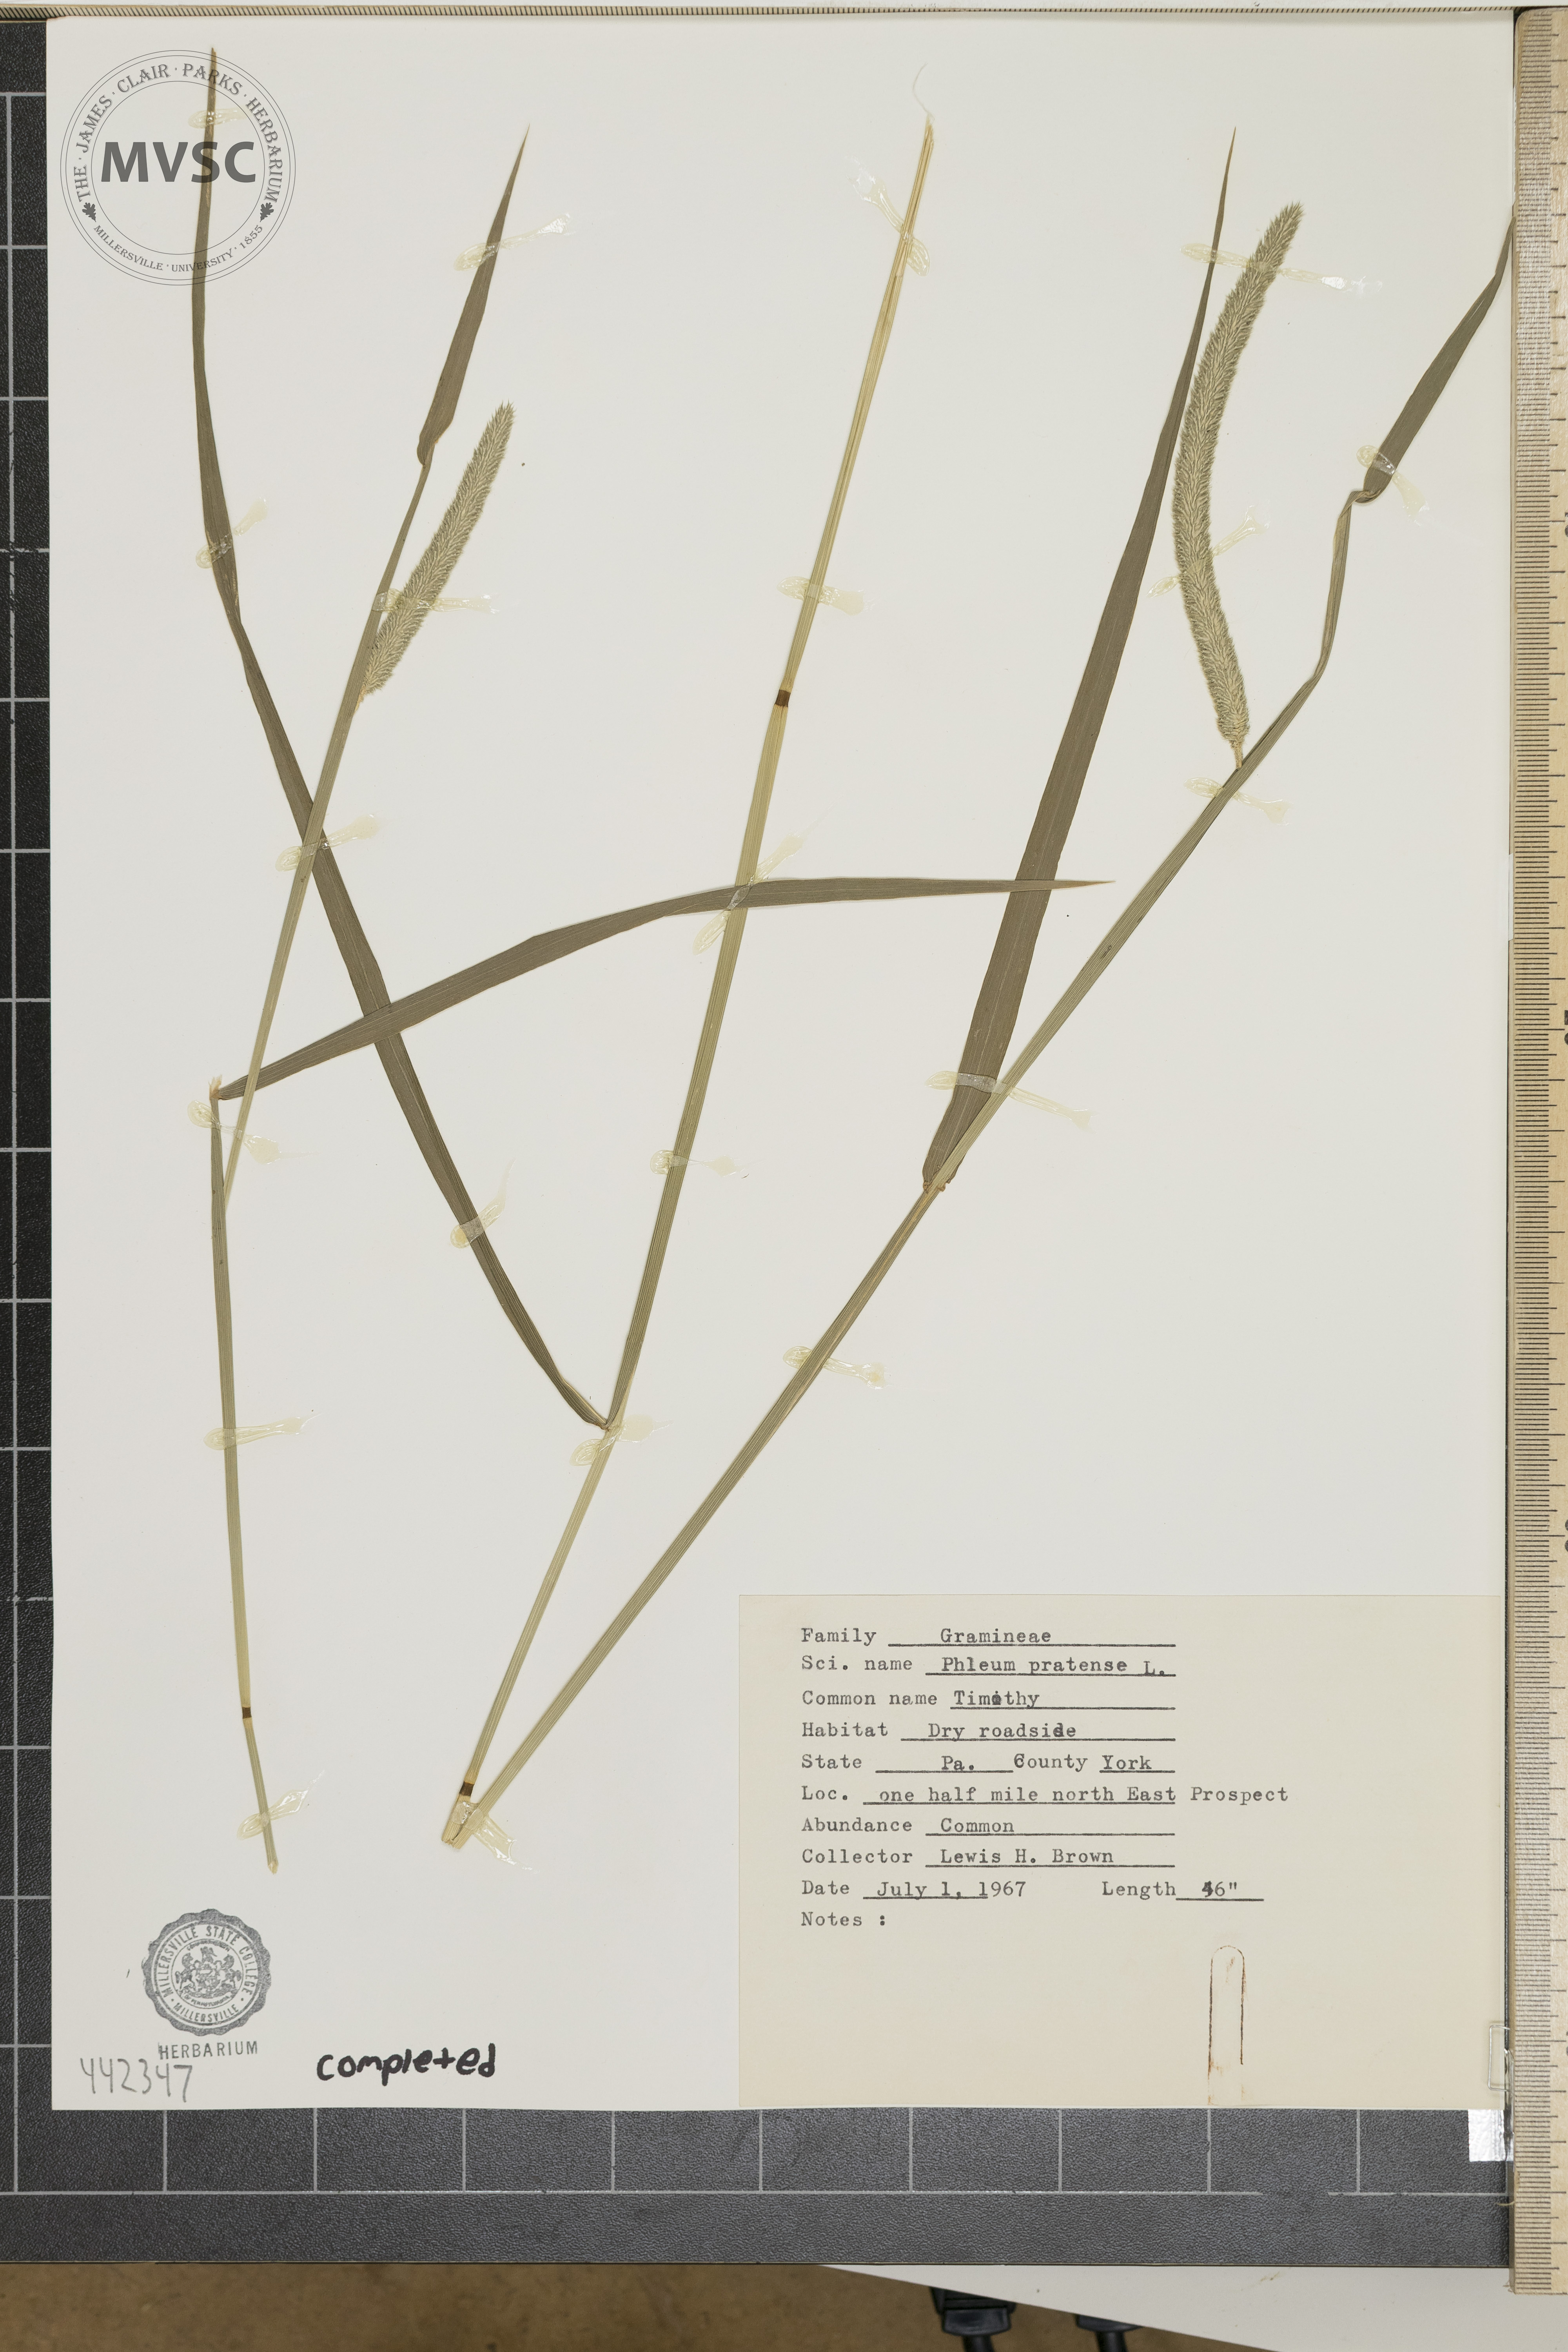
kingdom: Plantae
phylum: Tracheophyta
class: Liliopsida
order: Poales
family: Poaceae
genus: Phleum
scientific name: Phleum pratense
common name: Timothy
